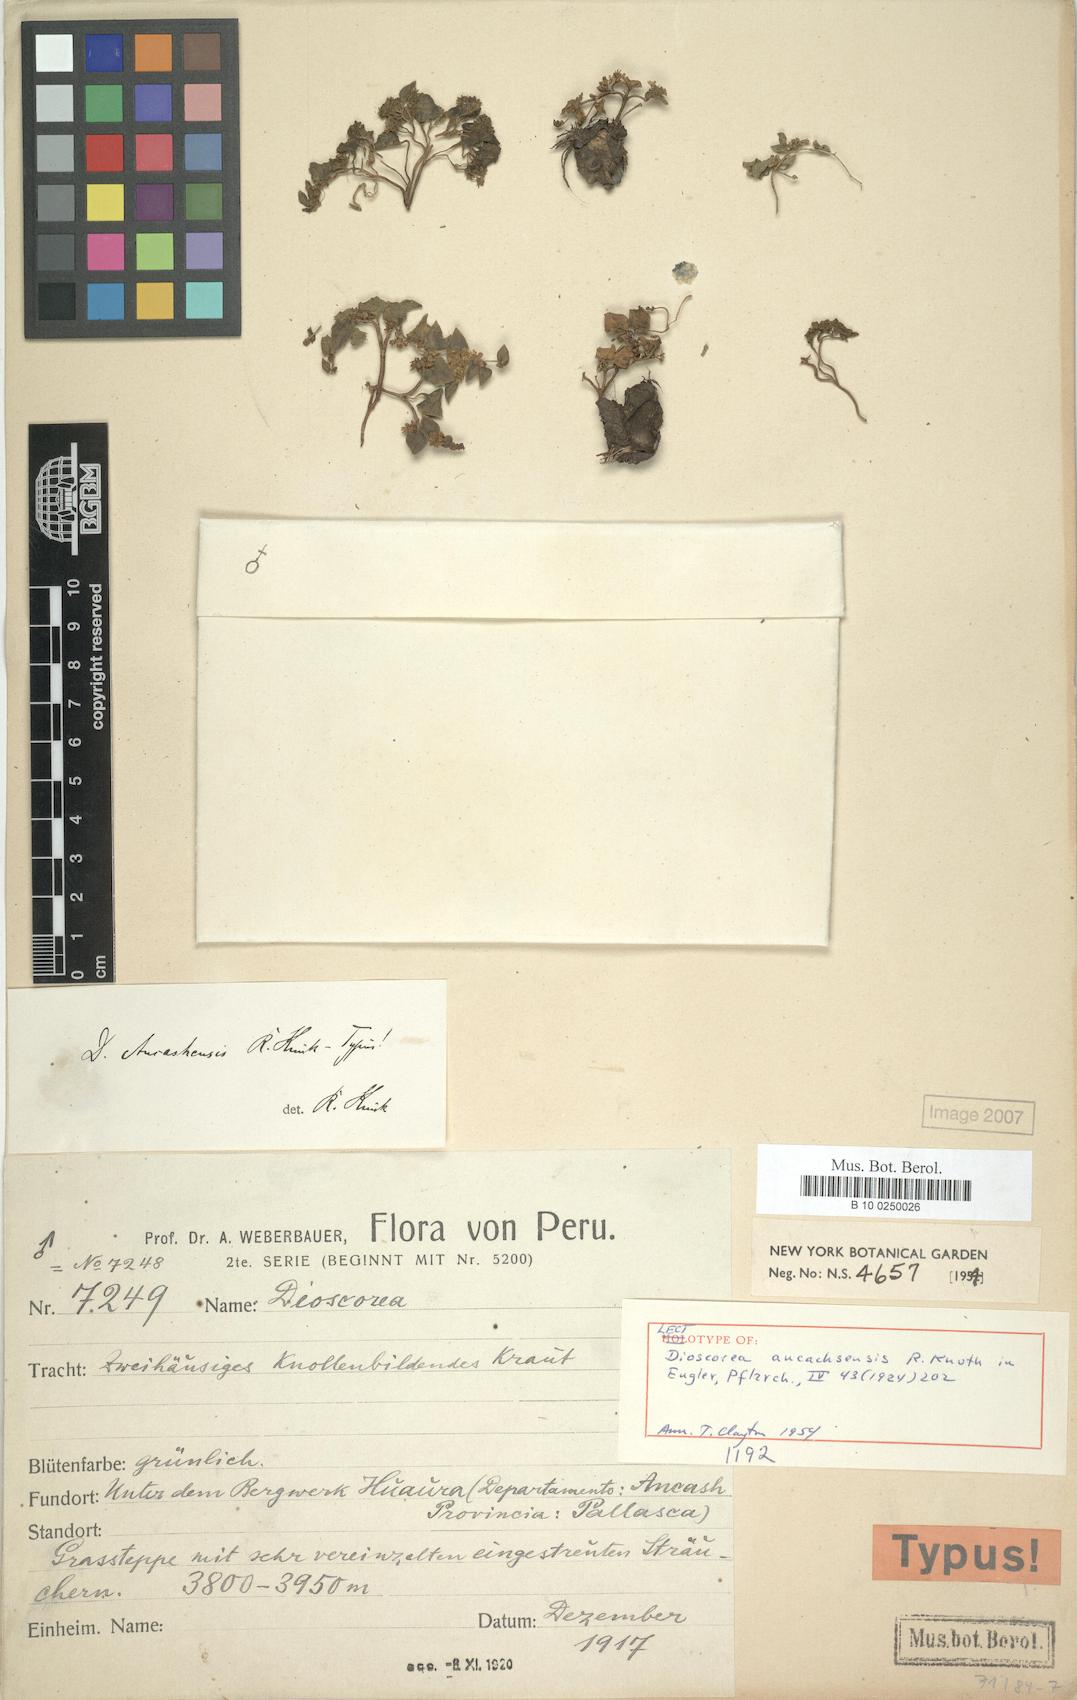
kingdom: Plantae
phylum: Tracheophyta
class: Liliopsida
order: Dioscoreales
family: Dioscoreaceae
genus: Dioscorea
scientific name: Dioscorea ancachsensis
